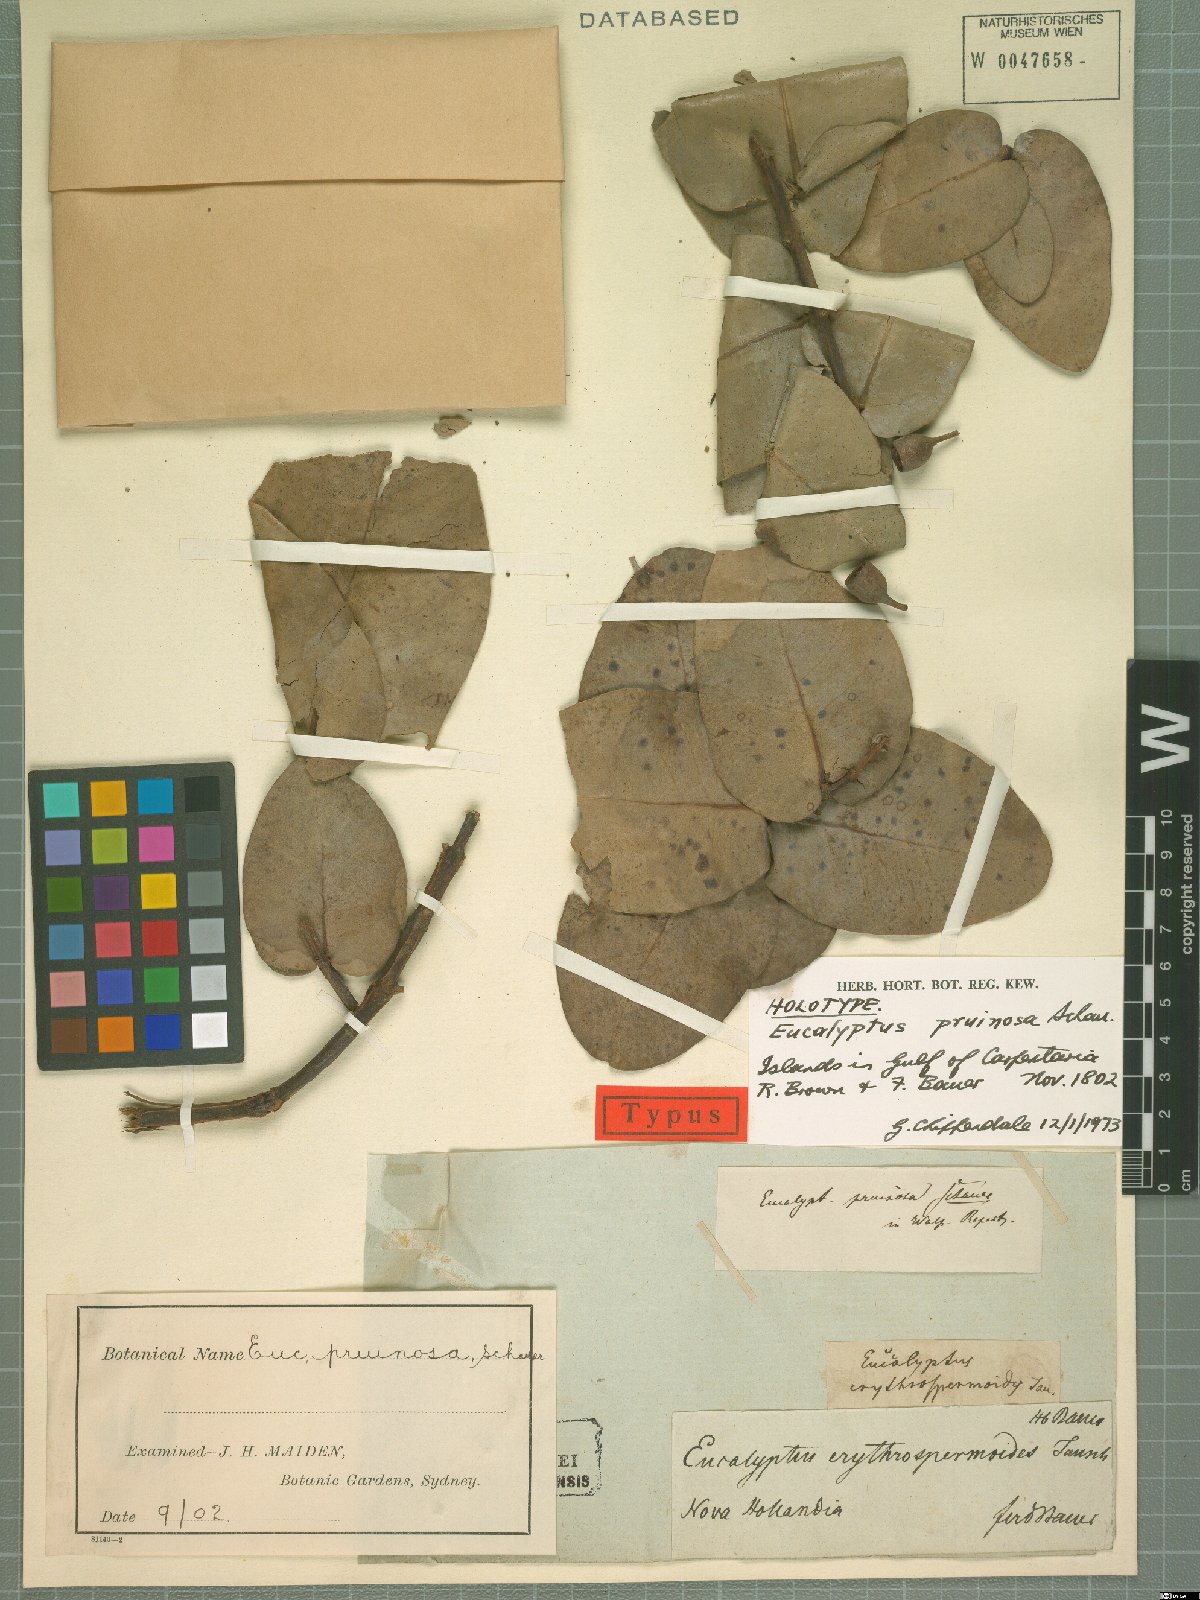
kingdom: Plantae
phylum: Tracheophyta
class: Magnoliopsida
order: Myrtales
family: Myrtaceae
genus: Eucalyptus
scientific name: Eucalyptus pruinosa
